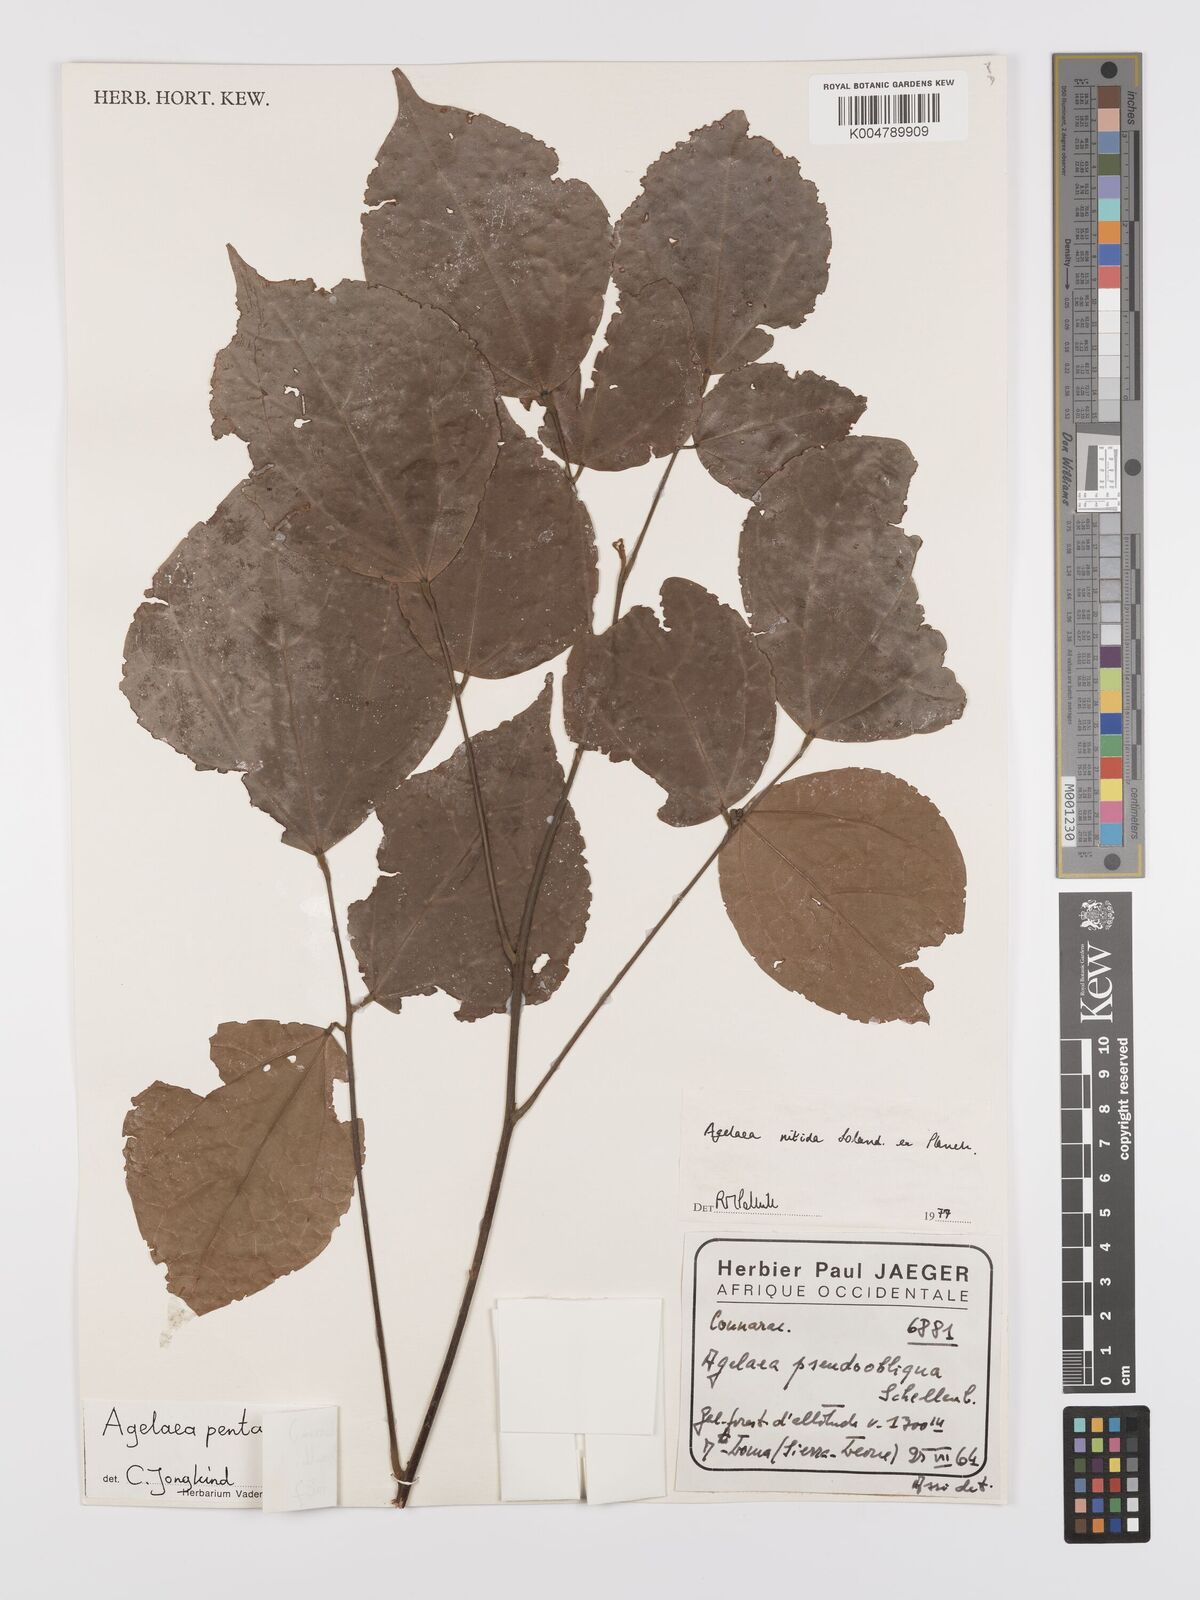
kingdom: Plantae
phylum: Tracheophyta
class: Magnoliopsida
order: Oxalidales
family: Connaraceae
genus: Agelaea
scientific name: Agelaea pentagyna
